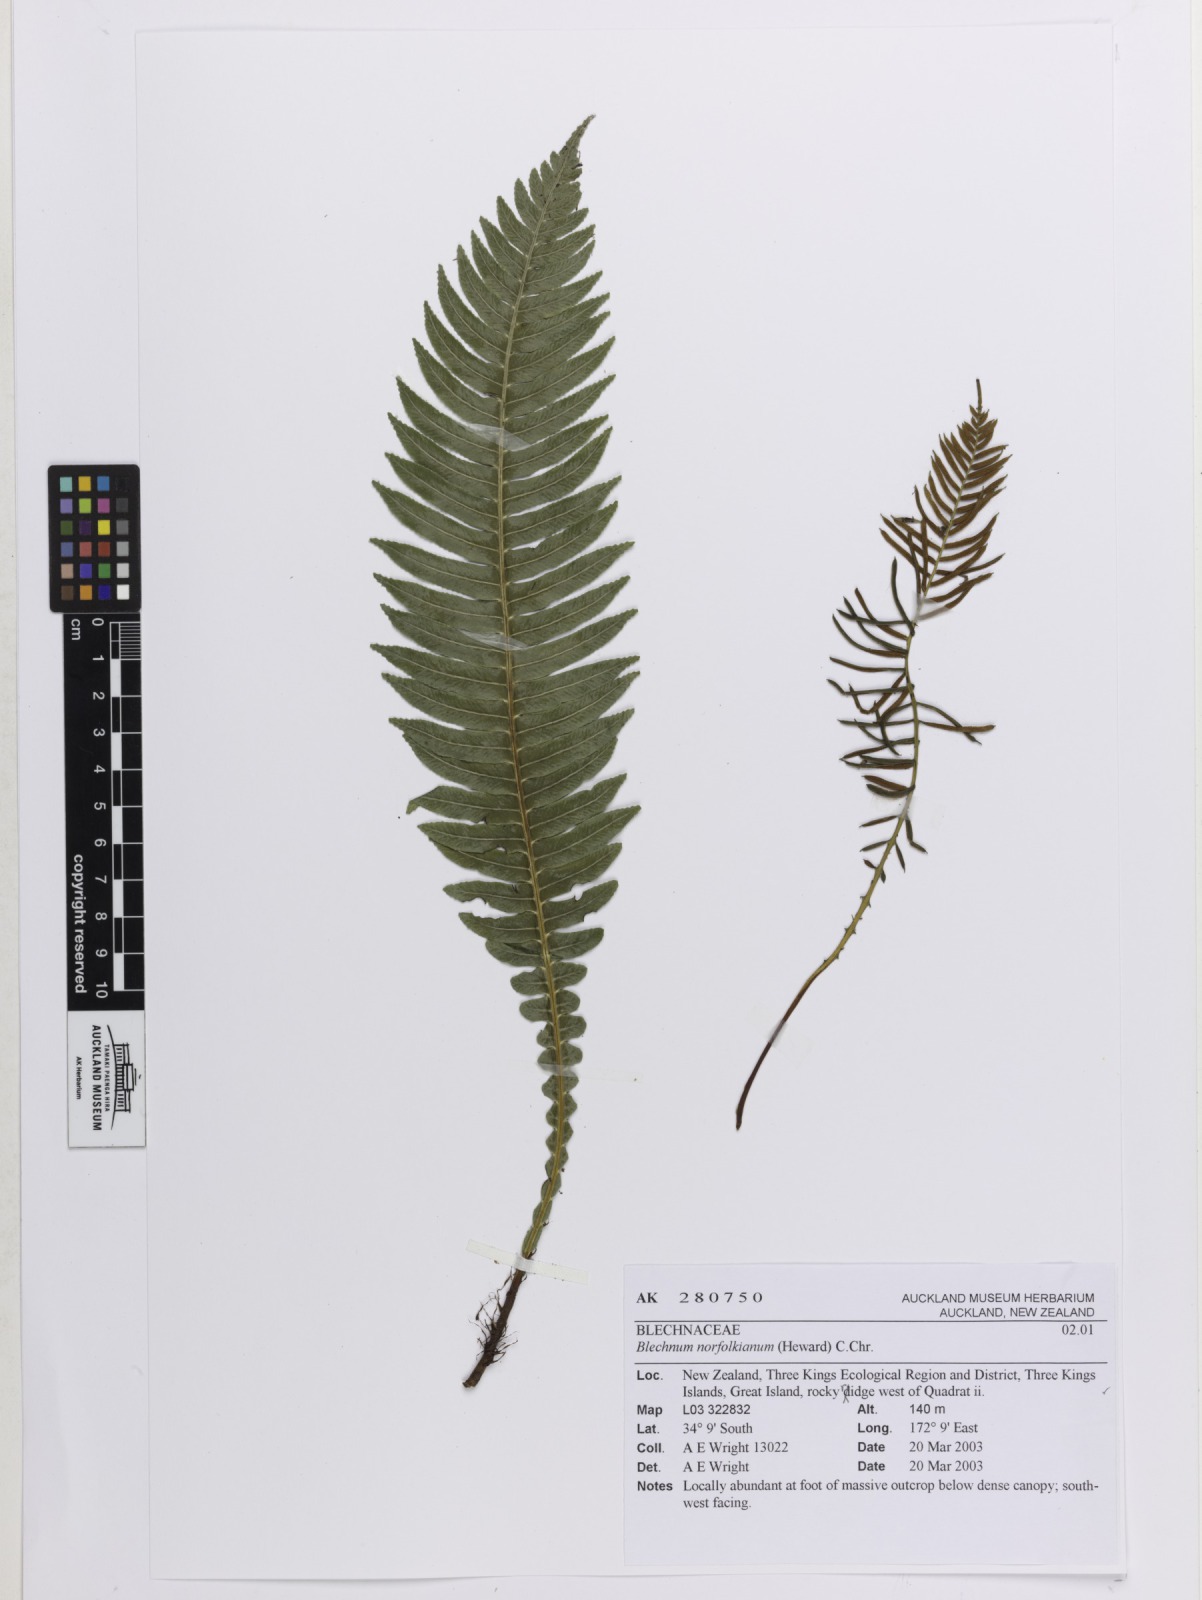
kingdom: Plantae
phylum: Tracheophyta
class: Polypodiopsida
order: Polypodiales
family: Blechnaceae
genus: Austroblechnum
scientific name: Austroblechnum norfolkianum
